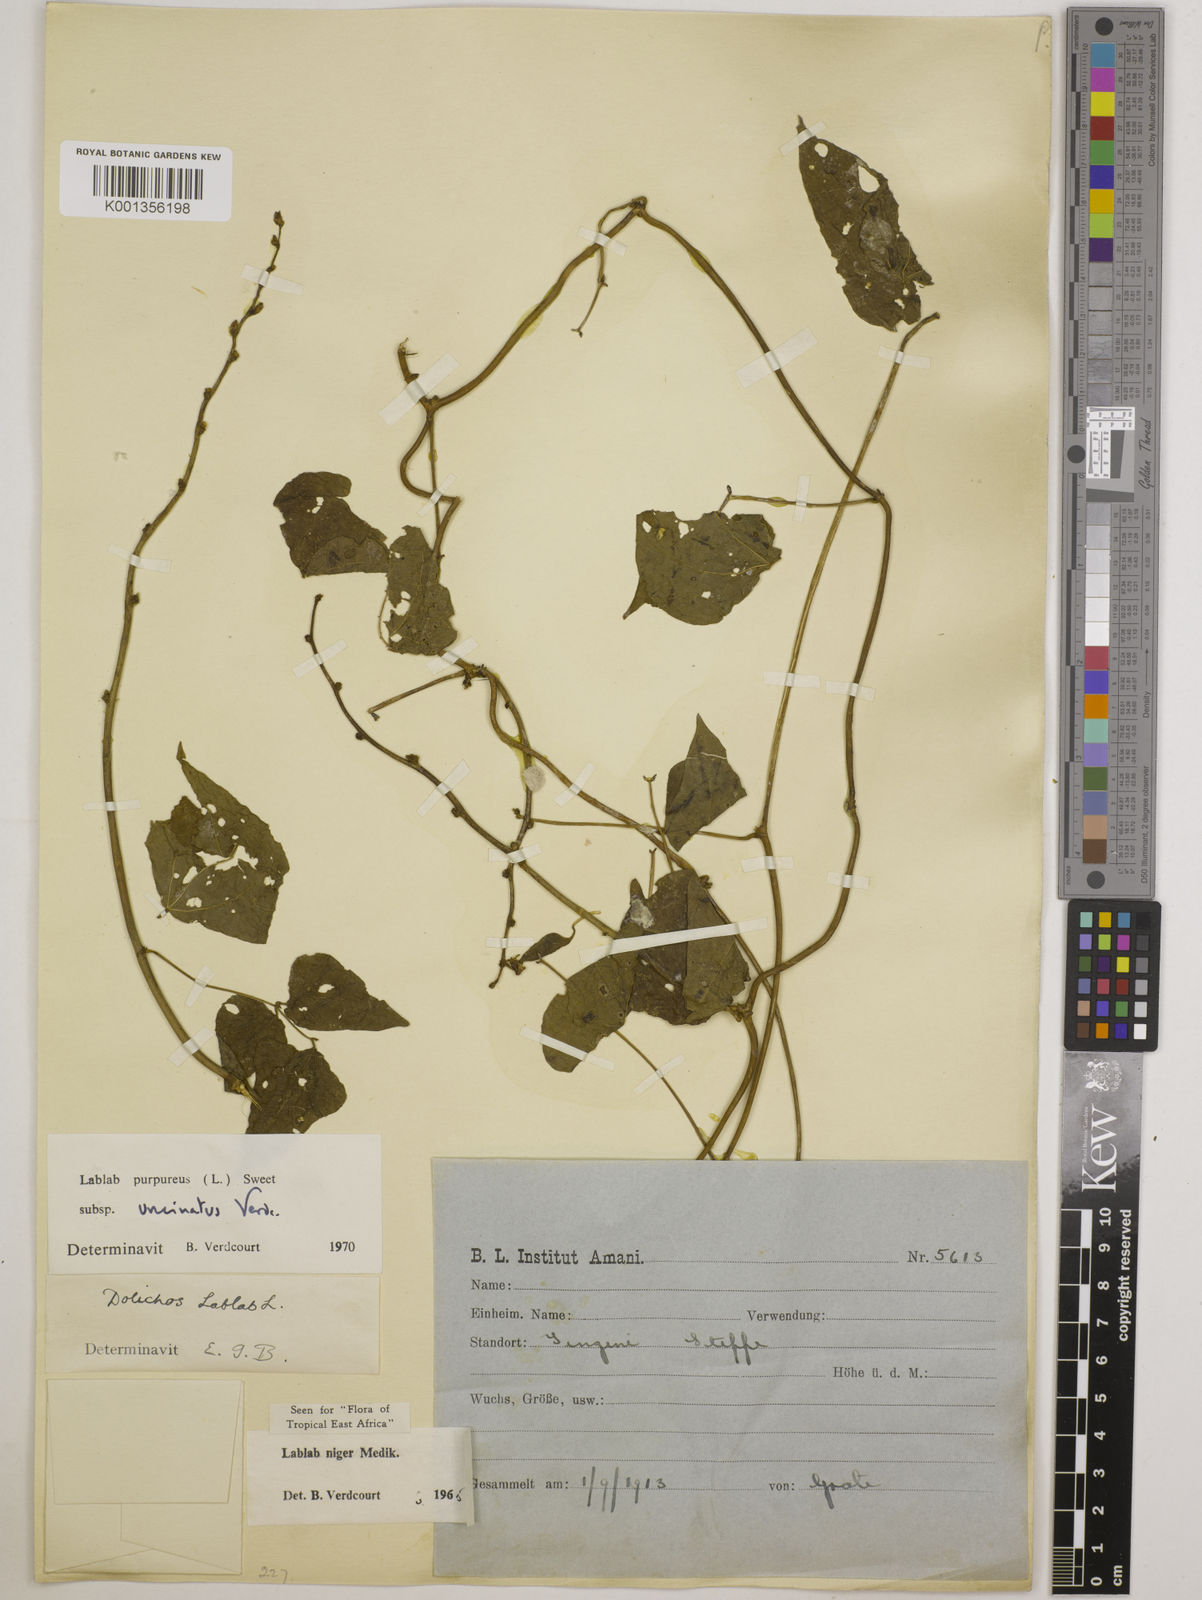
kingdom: Plantae
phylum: Tracheophyta
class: Magnoliopsida
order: Fabales
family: Fabaceae
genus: Lablab
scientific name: Lablab purpureus
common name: Lablab-bean
